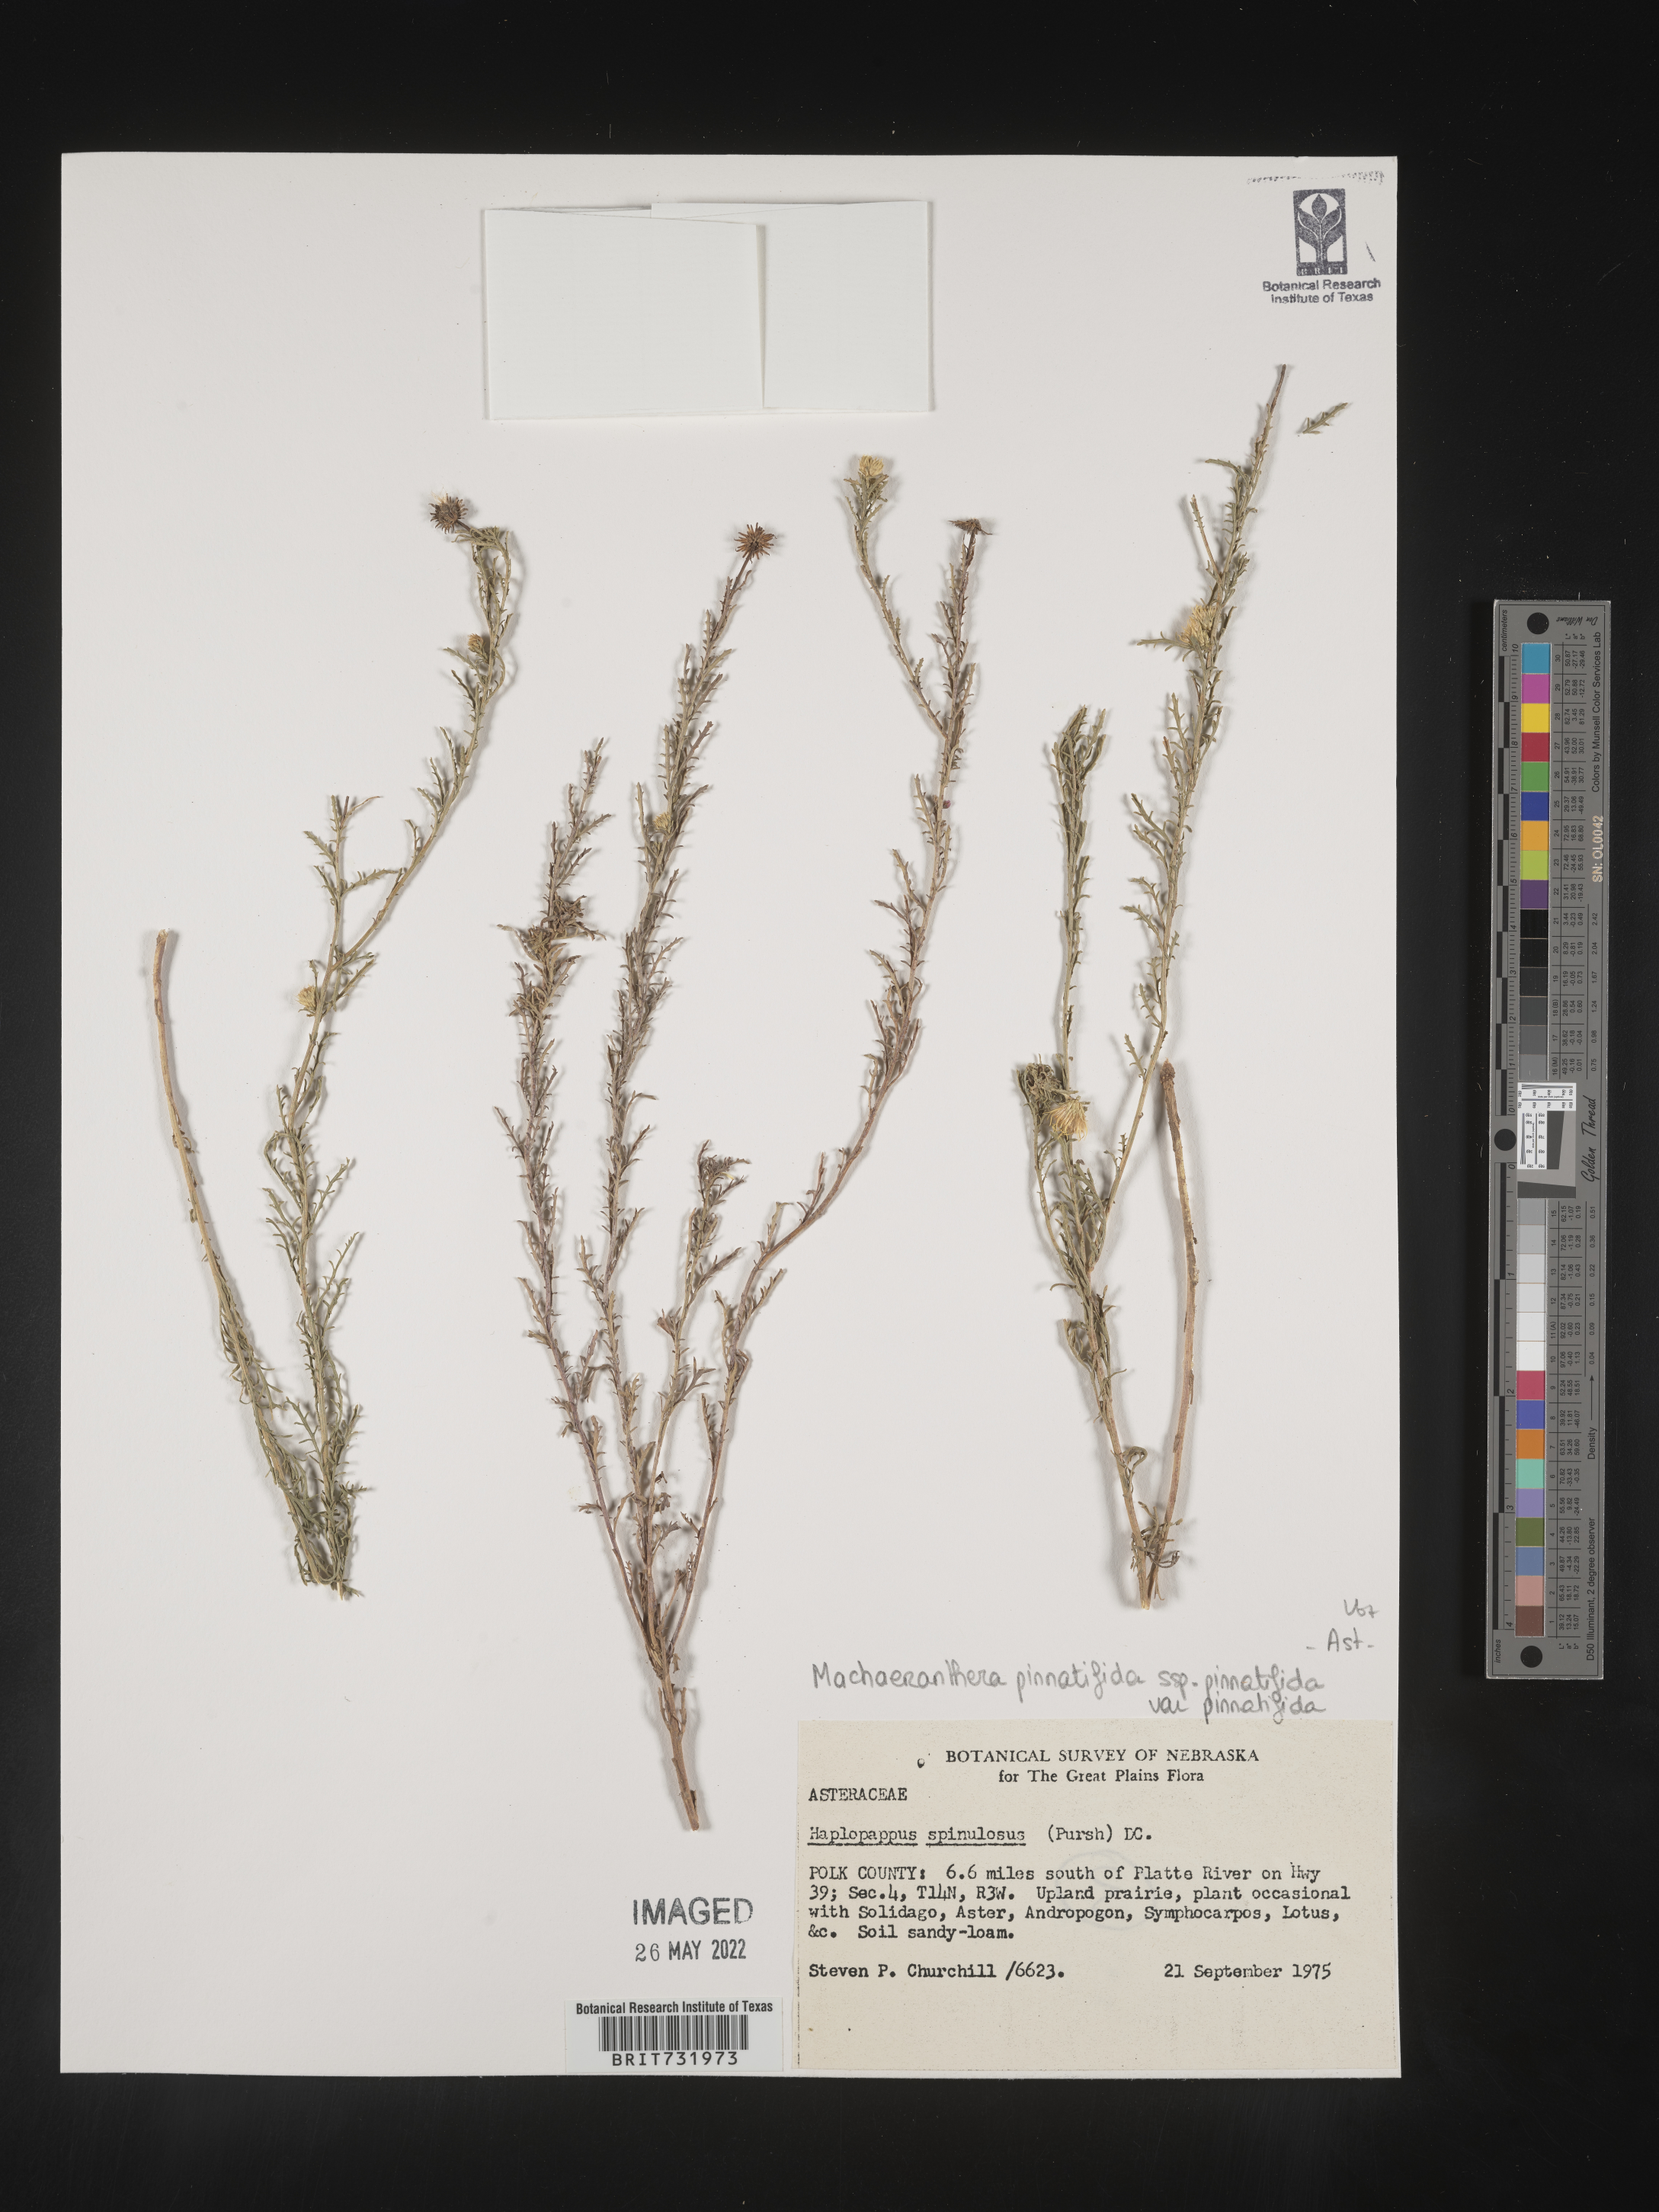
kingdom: Plantae
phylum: Tracheophyta
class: Magnoliopsida
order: Asterales
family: Asteraceae
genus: Xanthisma
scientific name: Xanthisma spinulosum
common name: Spiny goldenweed
